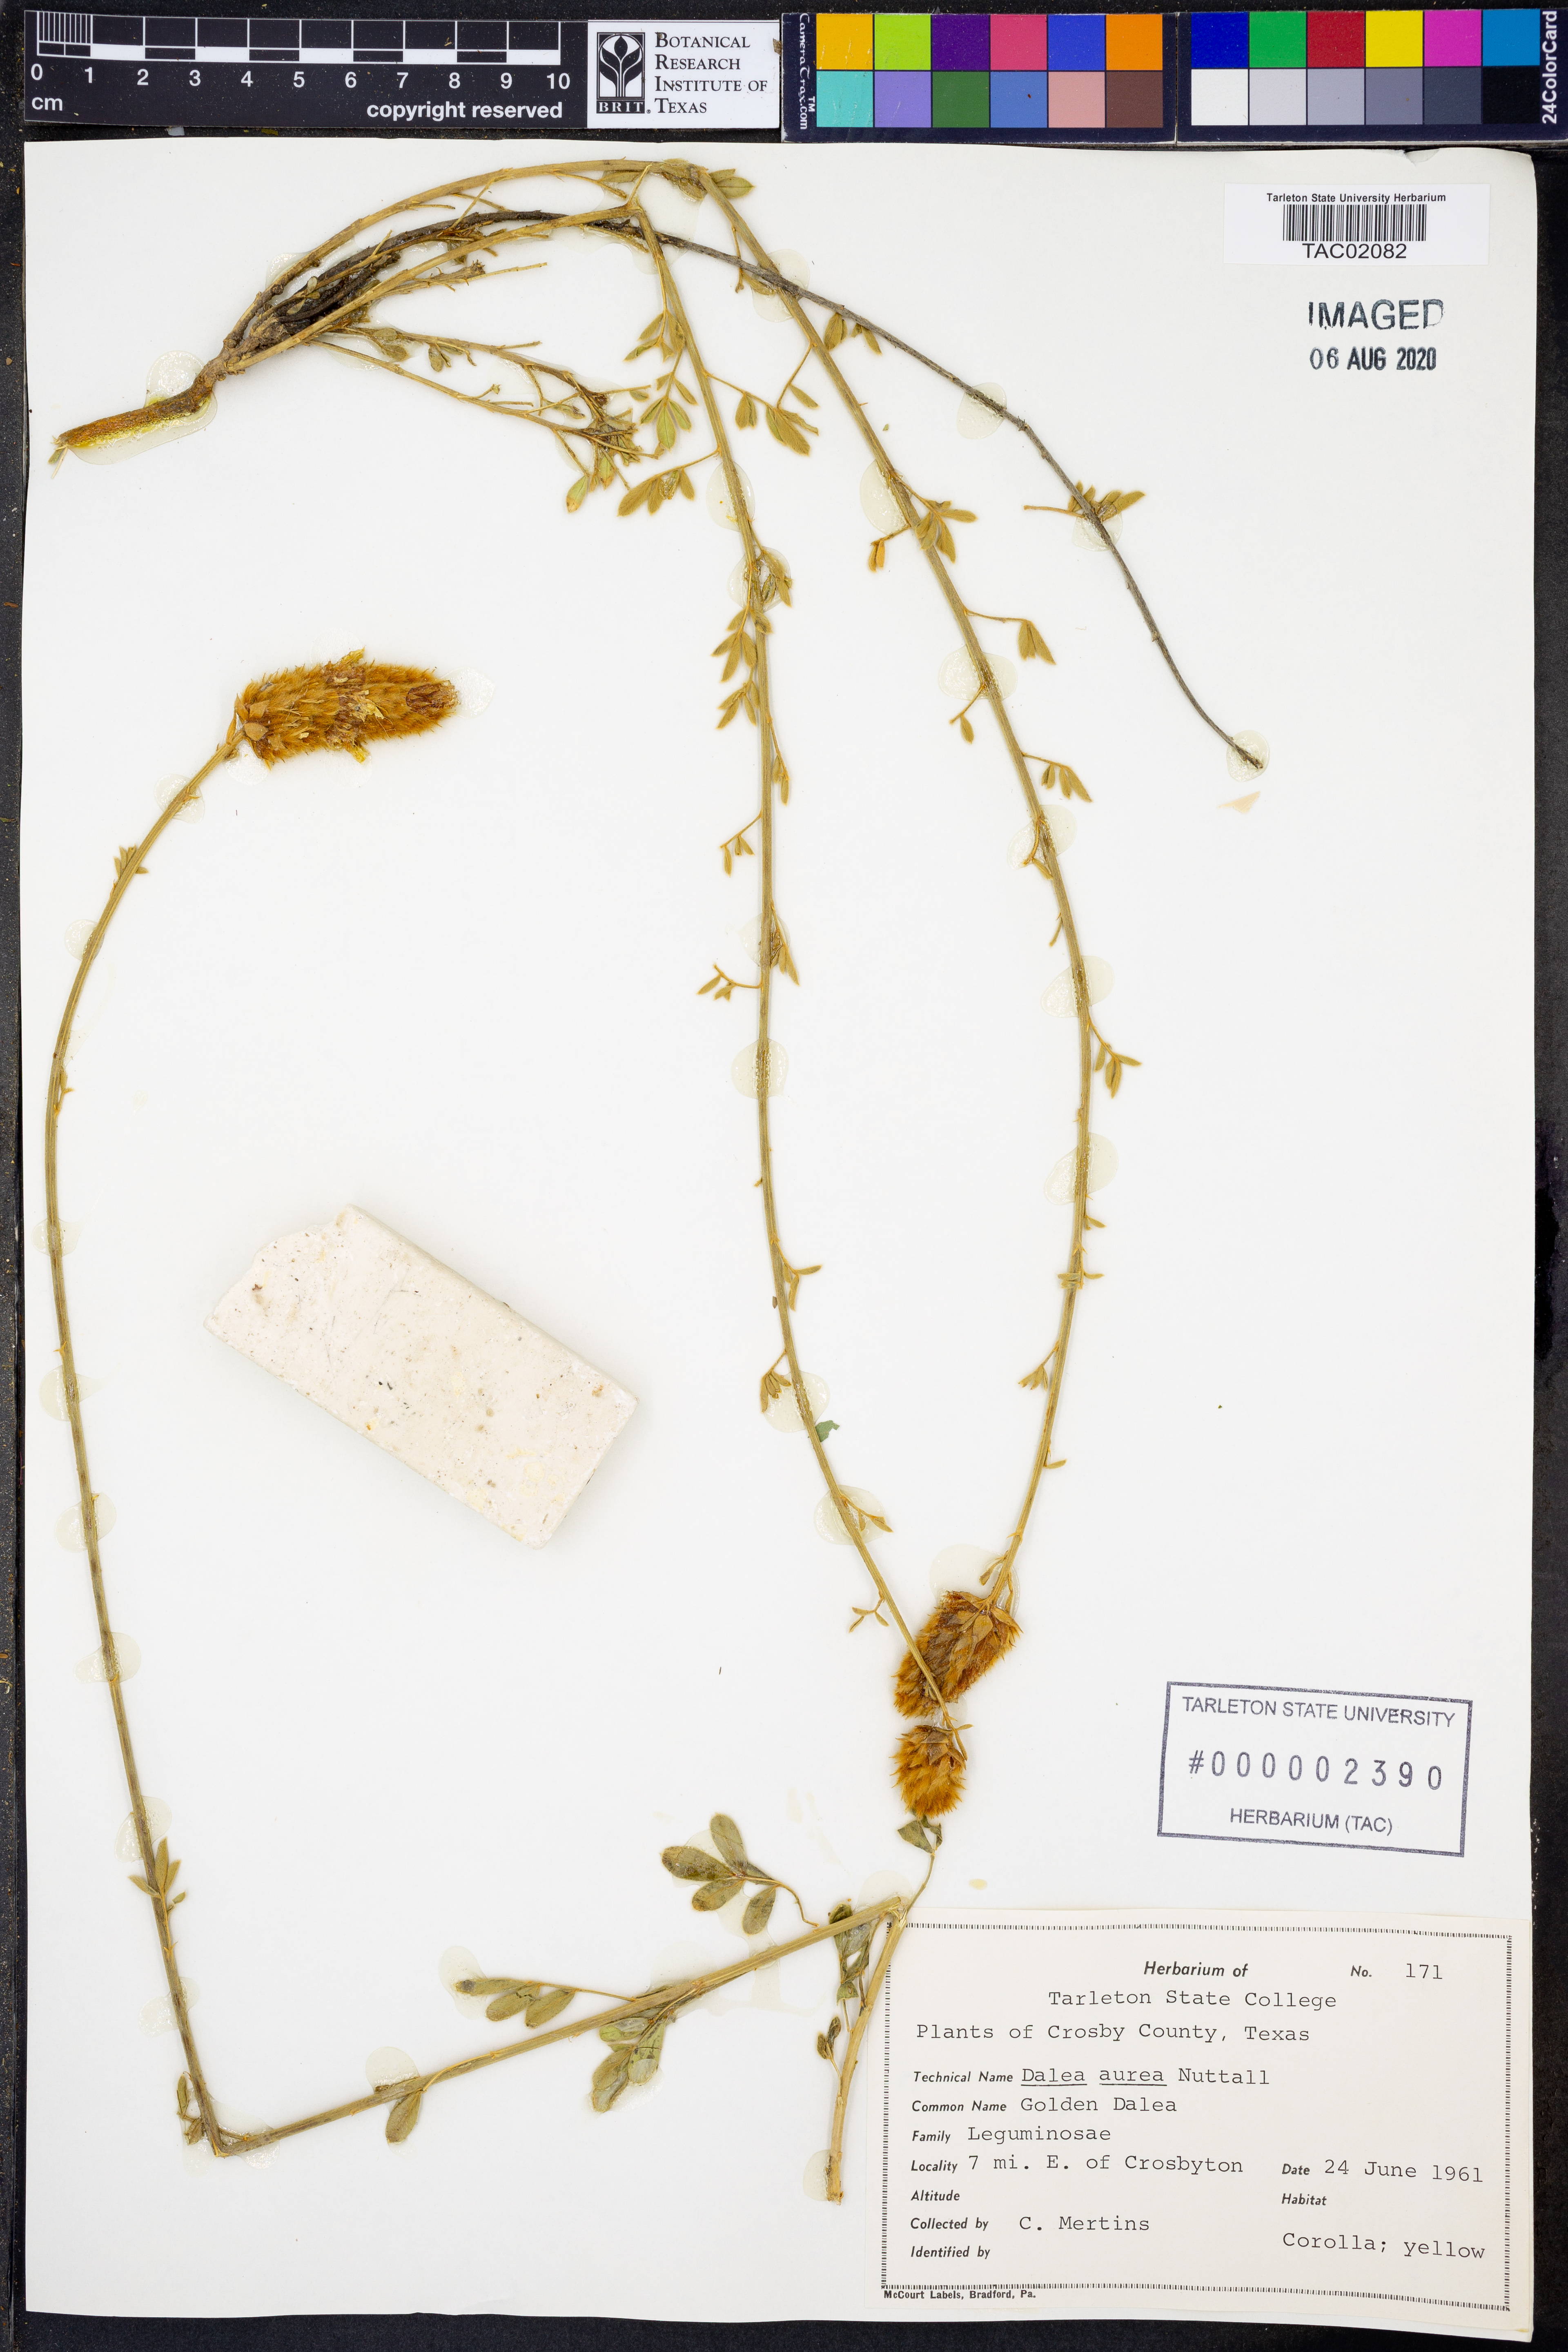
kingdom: Plantae
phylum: Tracheophyta
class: Magnoliopsida
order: Fabales
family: Fabaceae
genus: Dalea
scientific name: Dalea aurea
